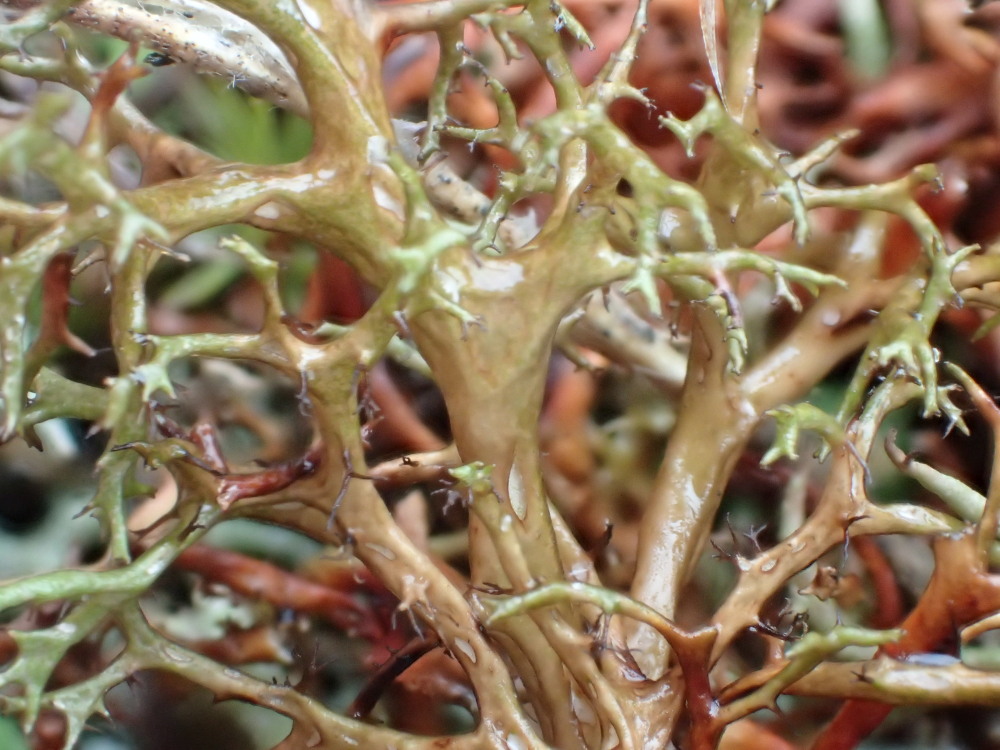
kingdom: Fungi
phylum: Ascomycota
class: Lecanoromycetes
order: Lecanorales
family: Parmeliaceae
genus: Cetraria
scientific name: Cetraria aculeata
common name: grubet tjørnelav
